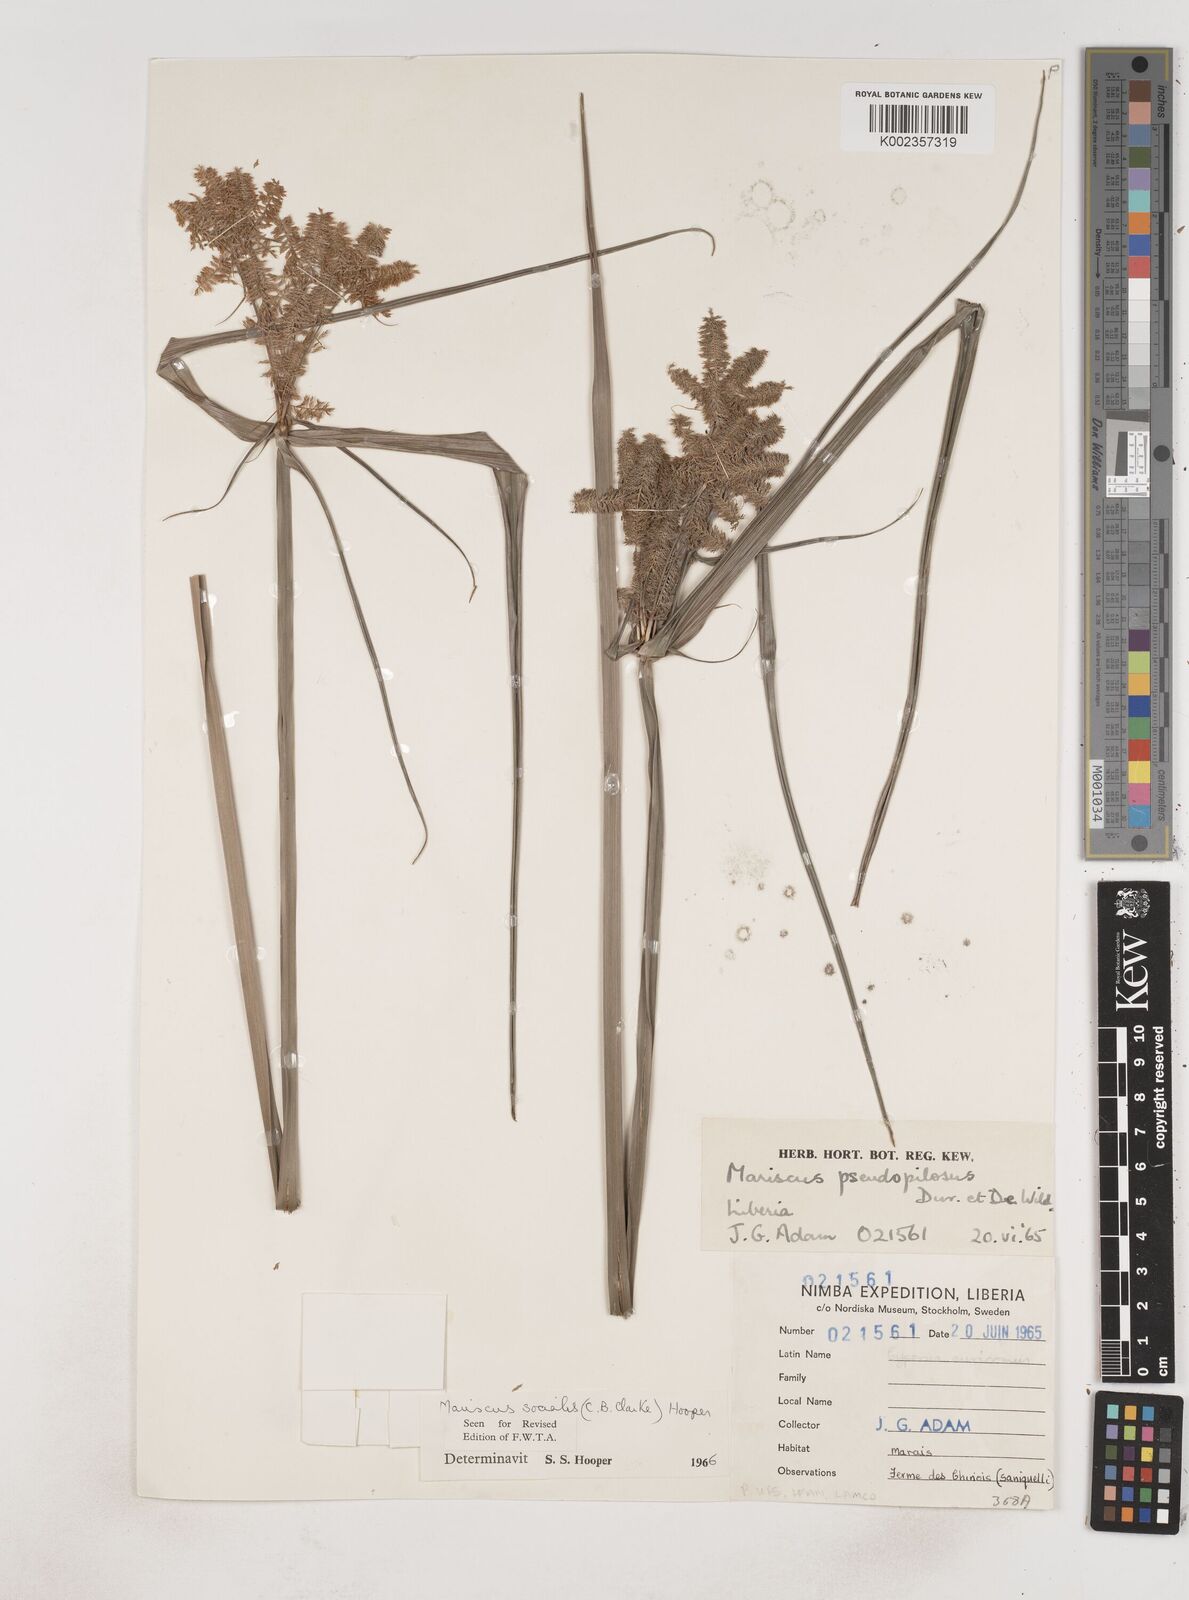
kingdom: Plantae
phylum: Tracheophyta
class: Liliopsida
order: Poales
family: Cyperaceae
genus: Cyperus
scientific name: Cyperus pseudopilosus
